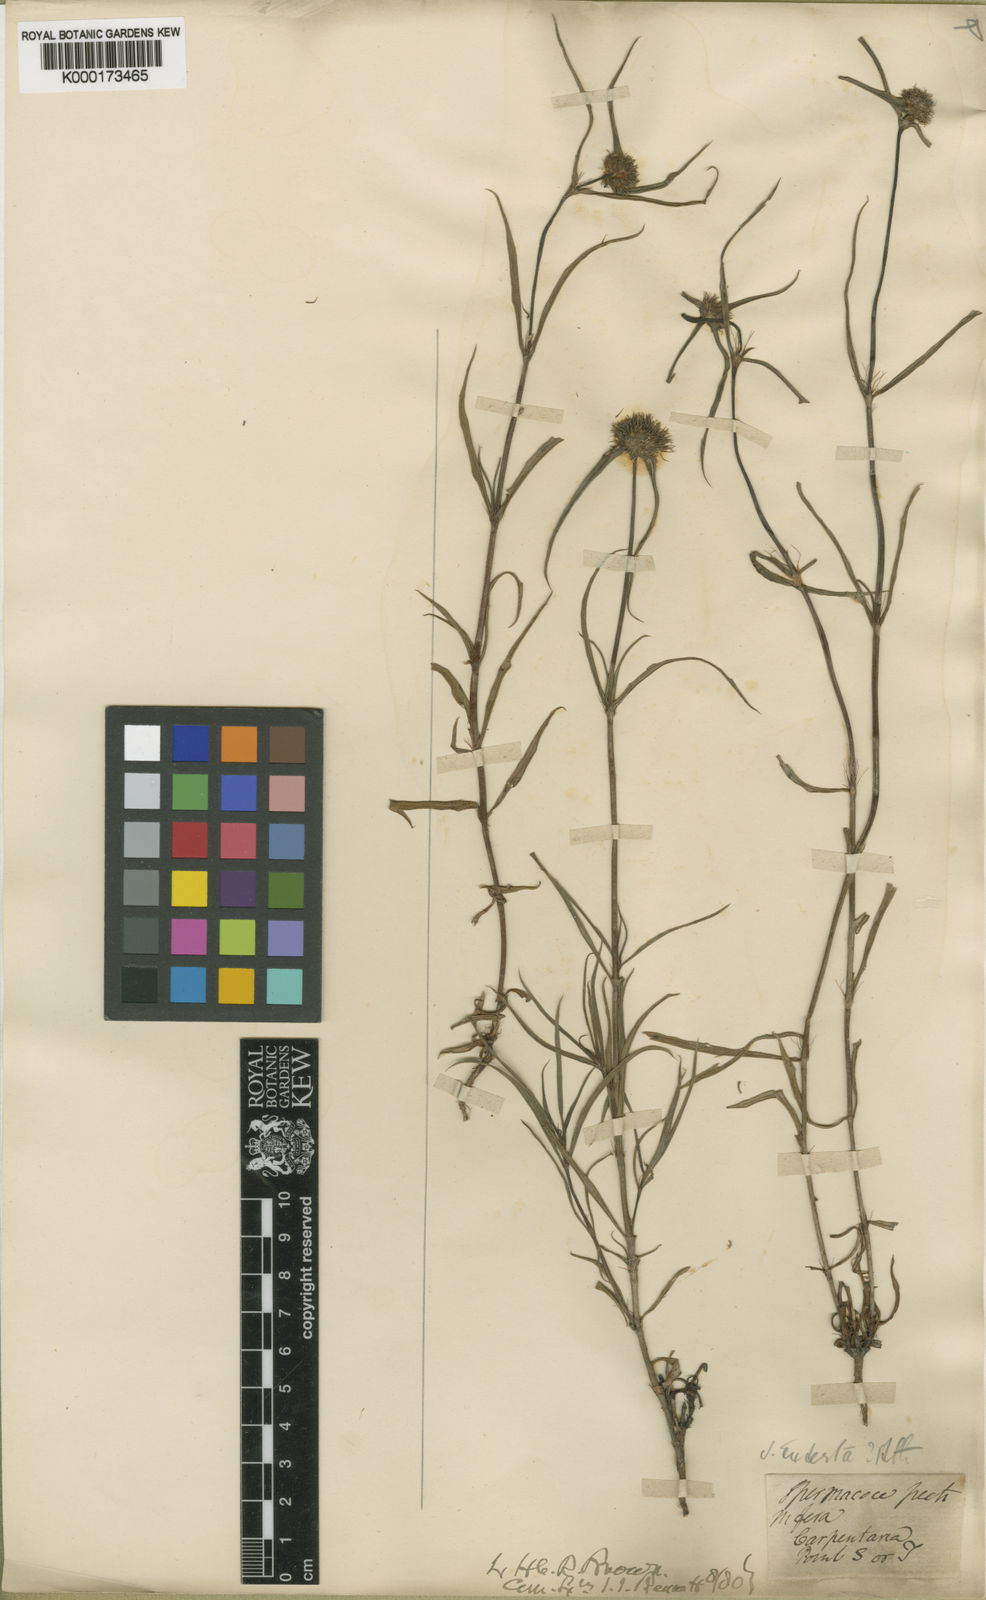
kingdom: Plantae
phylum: Tracheophyta
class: Magnoliopsida
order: Gentianales
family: Rubiaceae
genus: Spermacoce
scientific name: Spermacoce stenophylla
